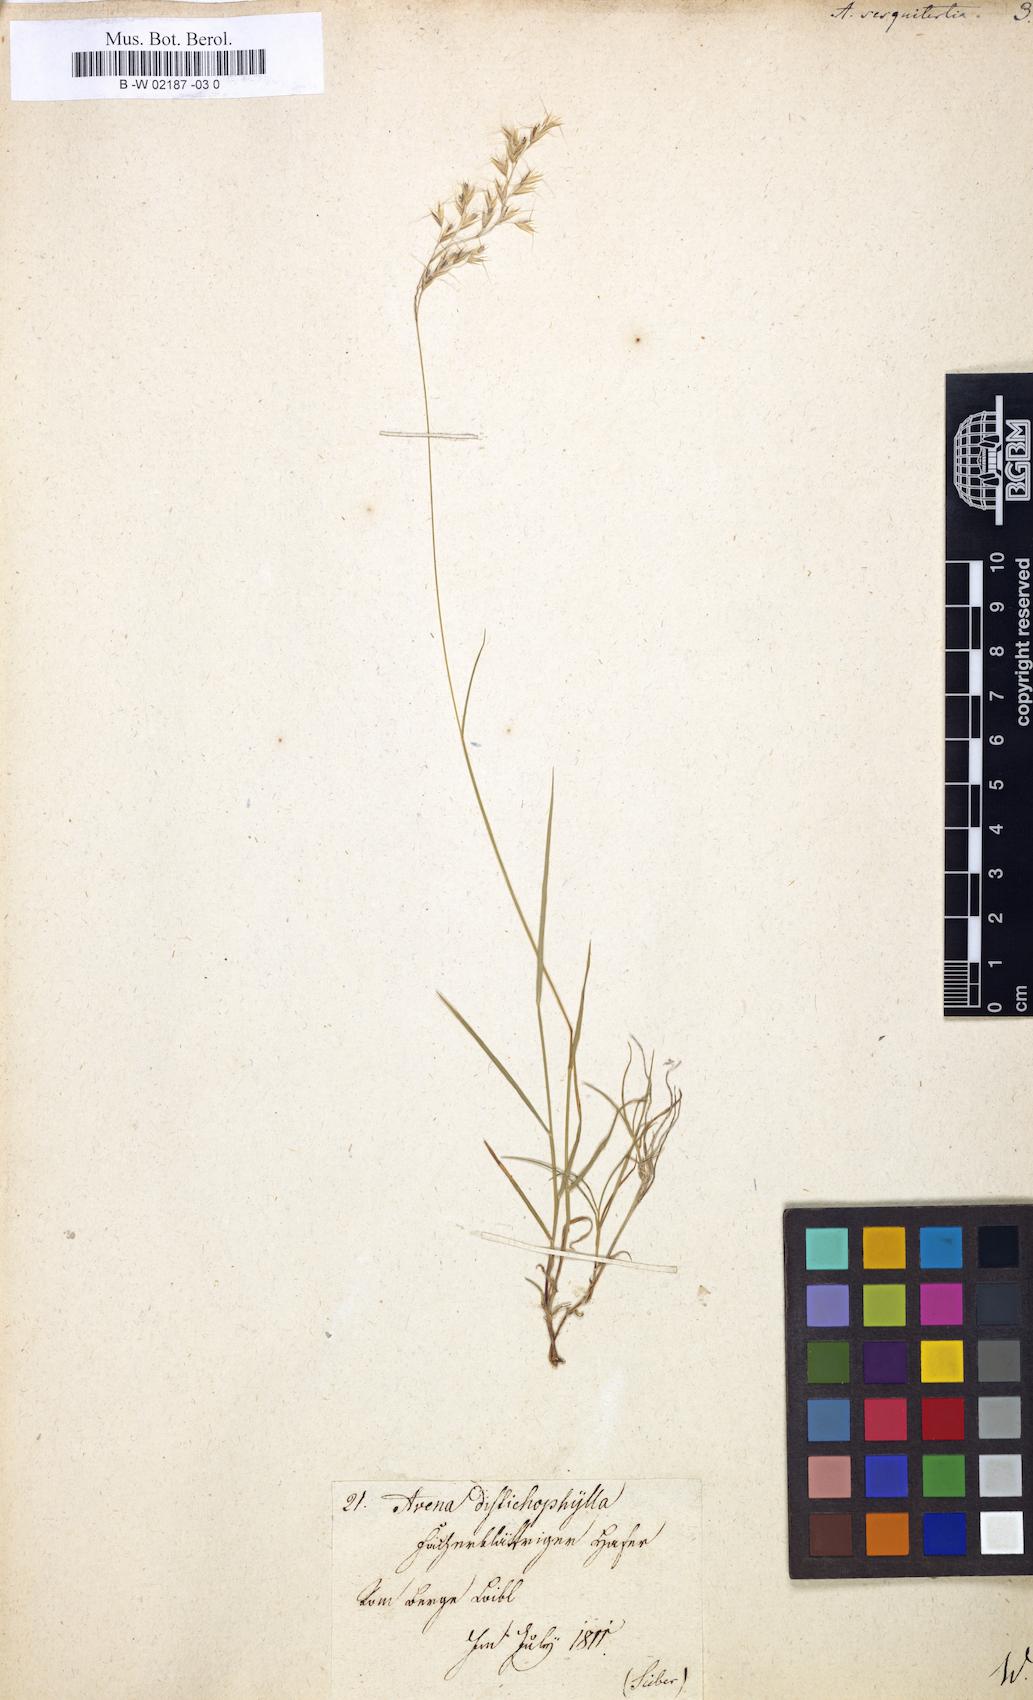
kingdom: Plantae
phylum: Tracheophyta
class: Liliopsida
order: Poales
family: Poaceae
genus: Avena
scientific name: Avena sesquitertia
